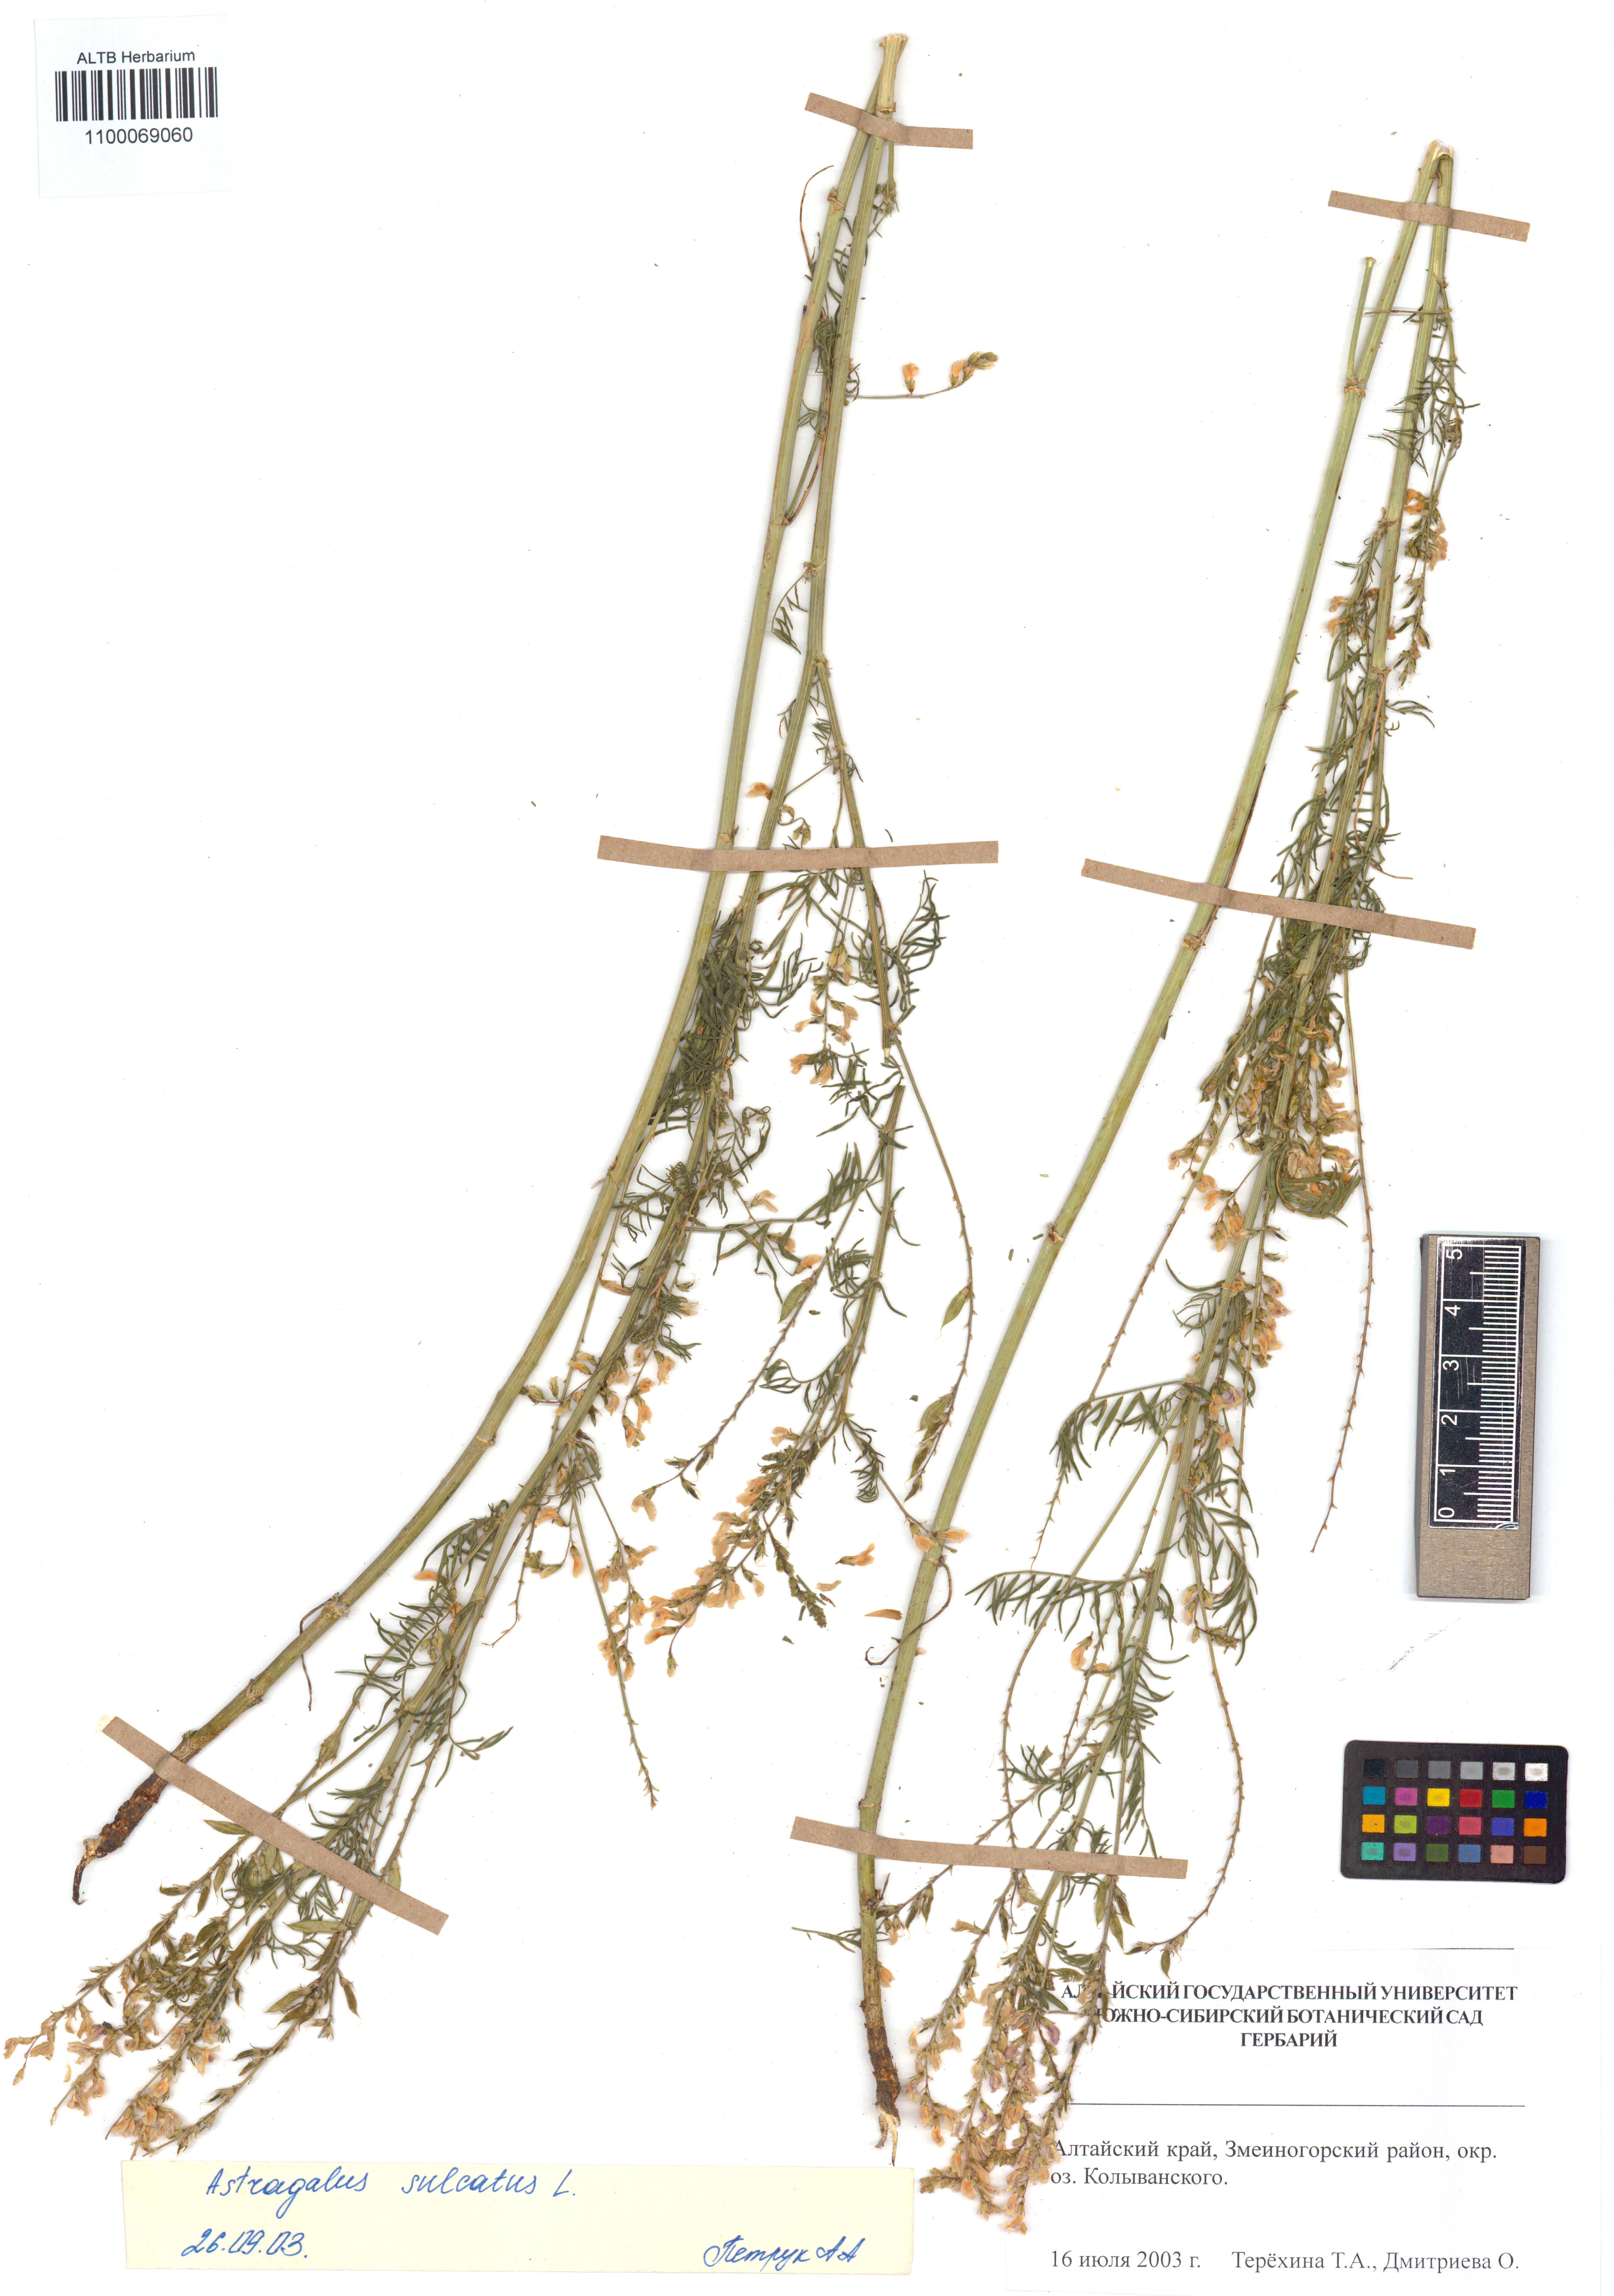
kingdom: Plantae
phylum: Tracheophyta
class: Magnoliopsida
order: Fabales
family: Fabaceae
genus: Astragalus
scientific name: Astragalus sulcatus
